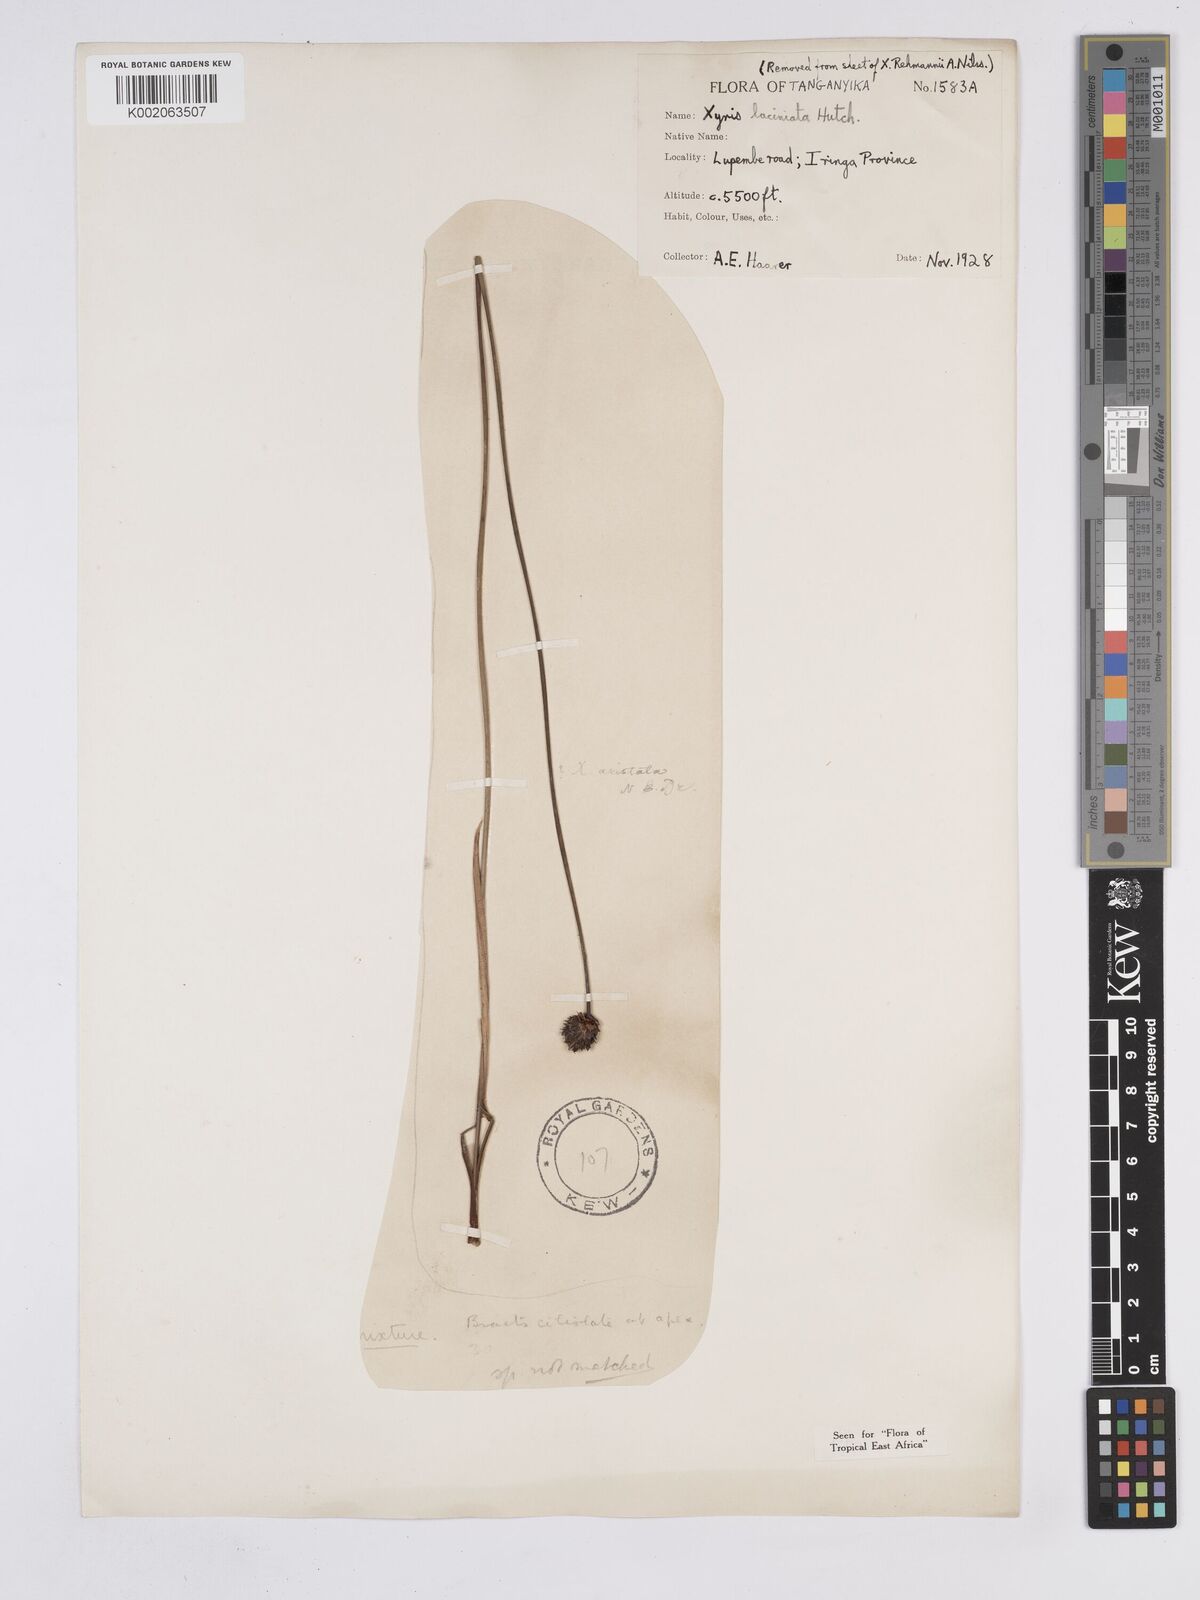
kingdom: Plantae
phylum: Tracheophyta
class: Liliopsida
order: Poales
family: Xyridaceae
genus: Xyris
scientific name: Xyris aristata
